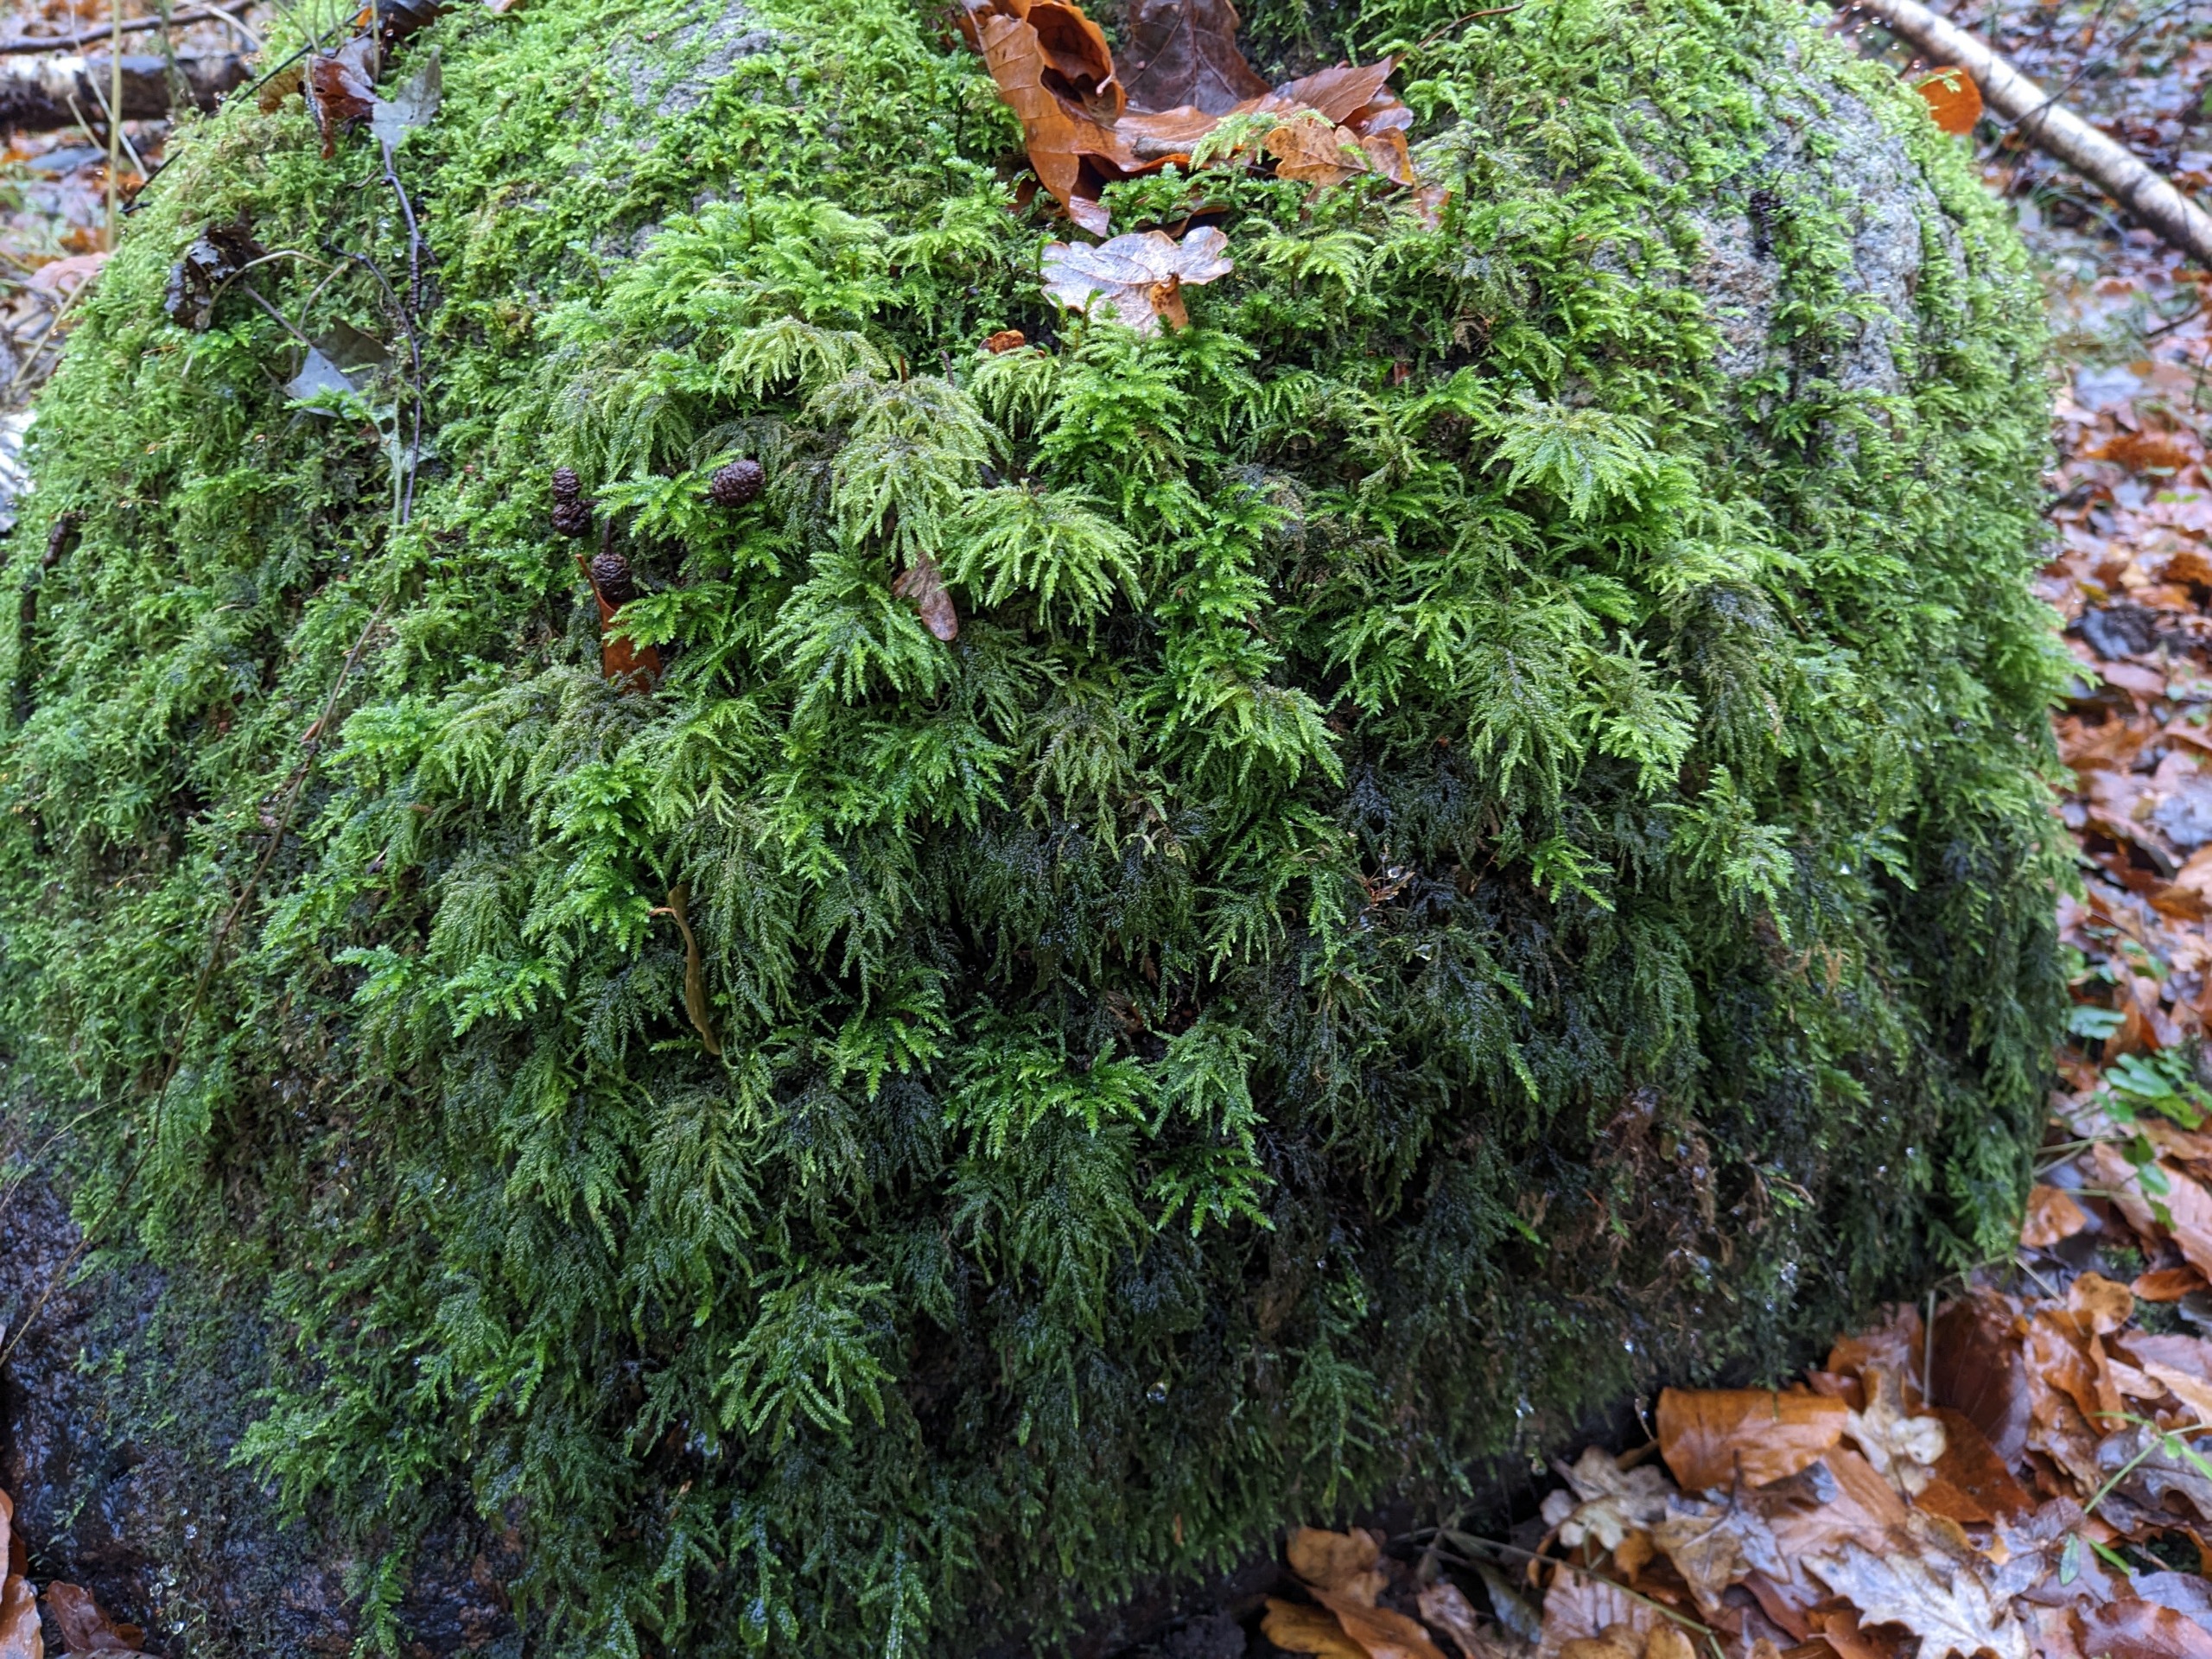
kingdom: Plantae
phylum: Bryophyta
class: Bryopsida
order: Hypnales
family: Neckeraceae
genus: Thamnobryum
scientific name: Thamnobryum alopecurum
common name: Mat bækkost
